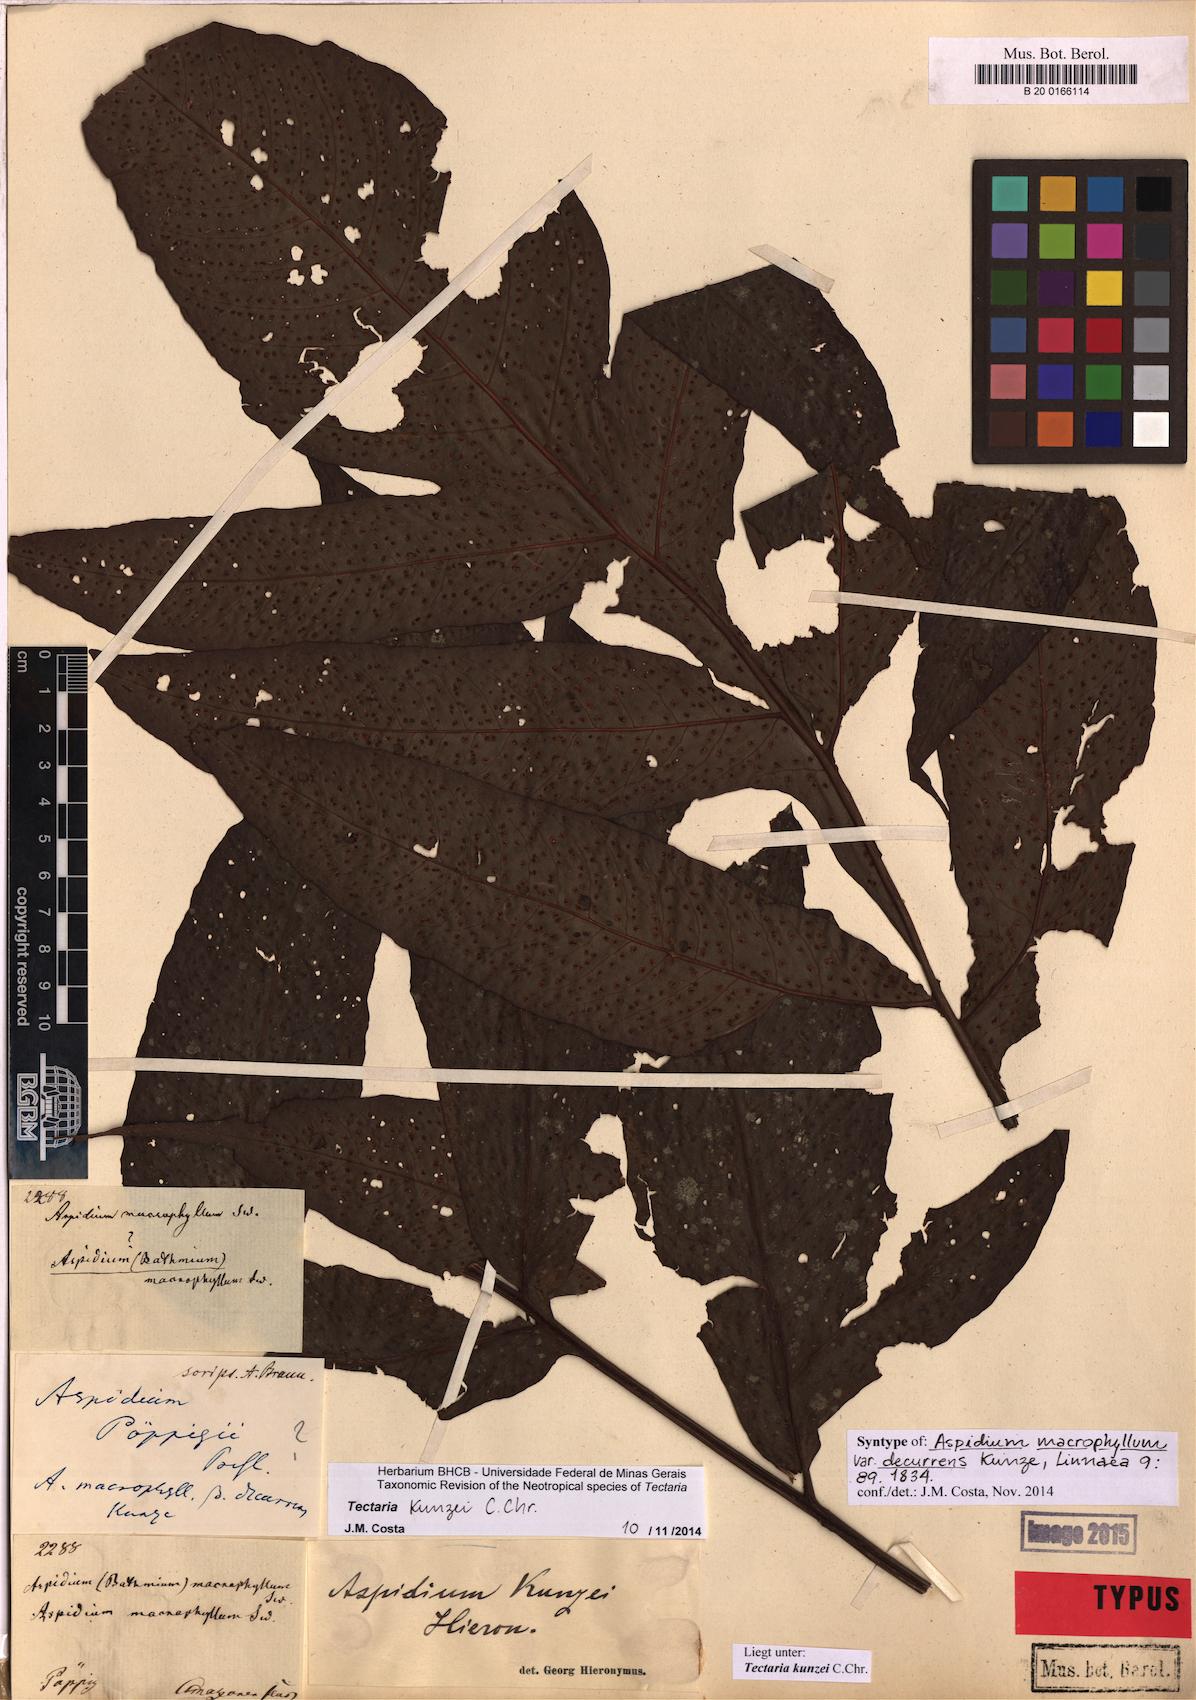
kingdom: Plantae
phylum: Tracheophyta
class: Polypodiopsida
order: Polypodiales
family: Tectariaceae
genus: Tectaria
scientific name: Tectaria kunzei
